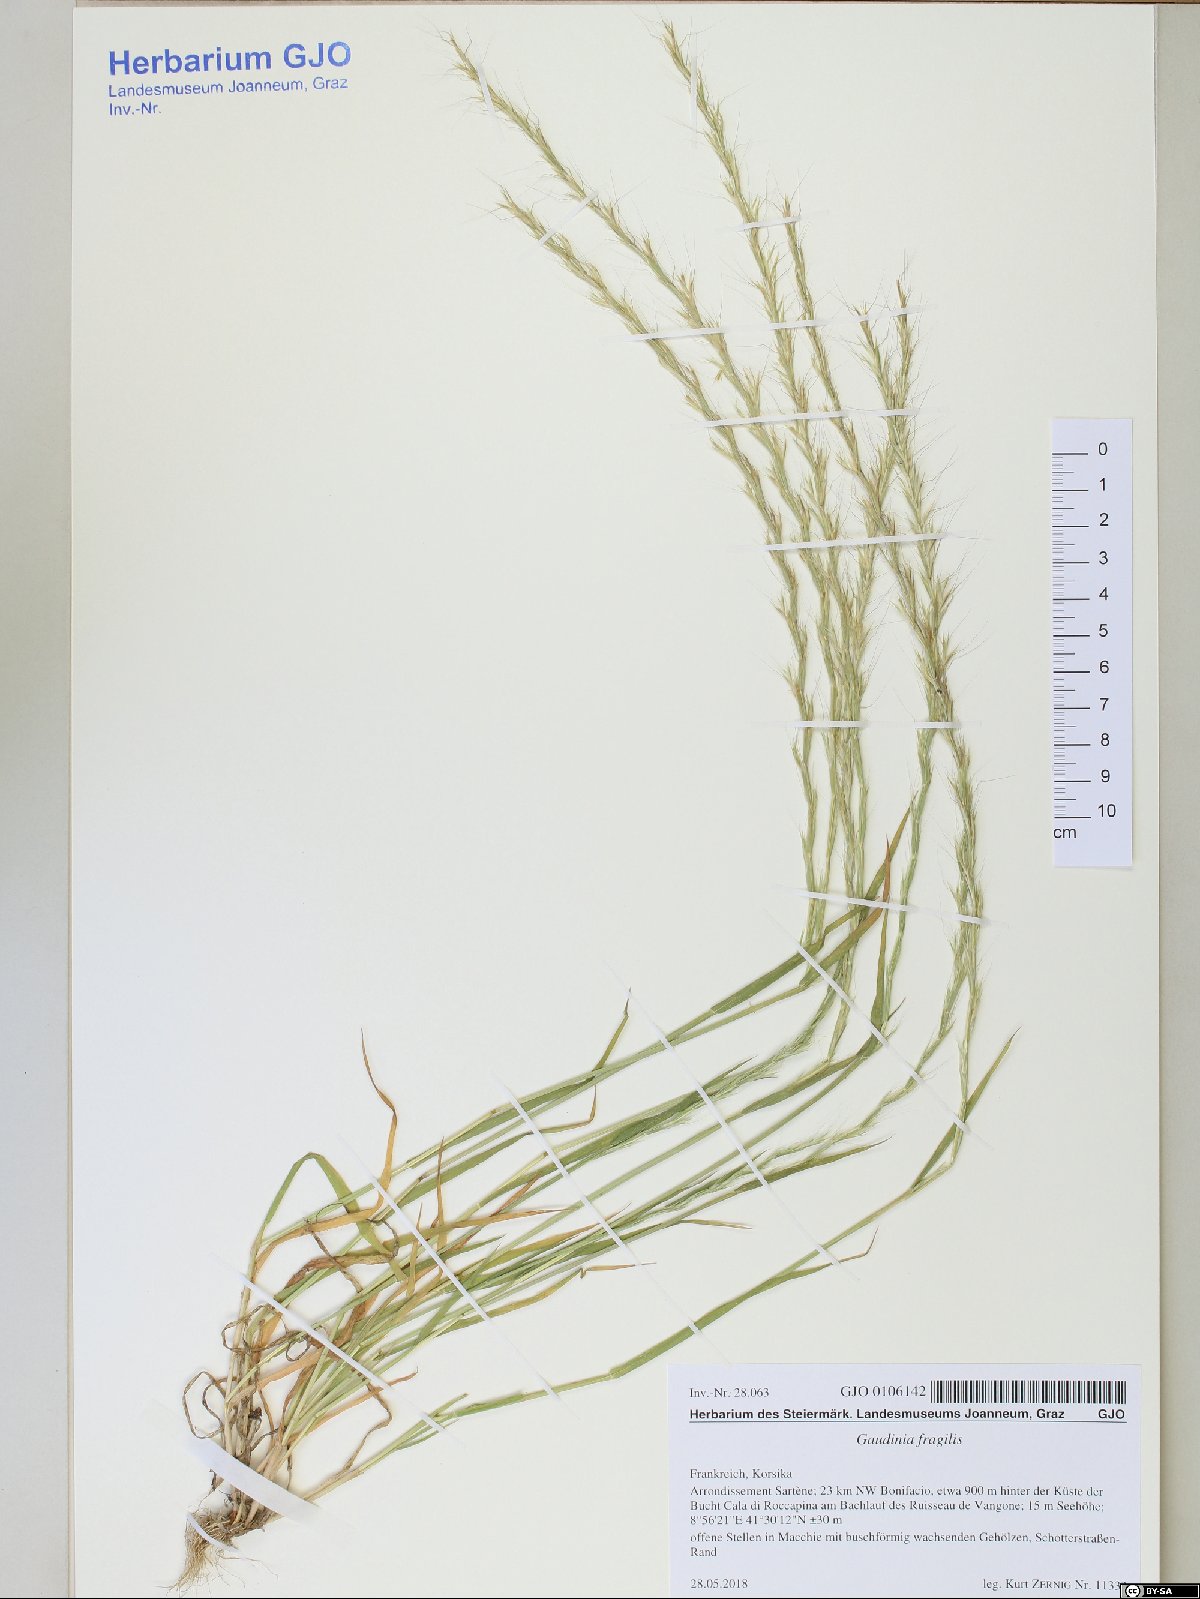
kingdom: Plantae
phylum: Tracheophyta
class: Liliopsida
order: Poales
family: Poaceae
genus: Gaudinia
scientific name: Gaudinia fragilis
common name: French oat-grass
